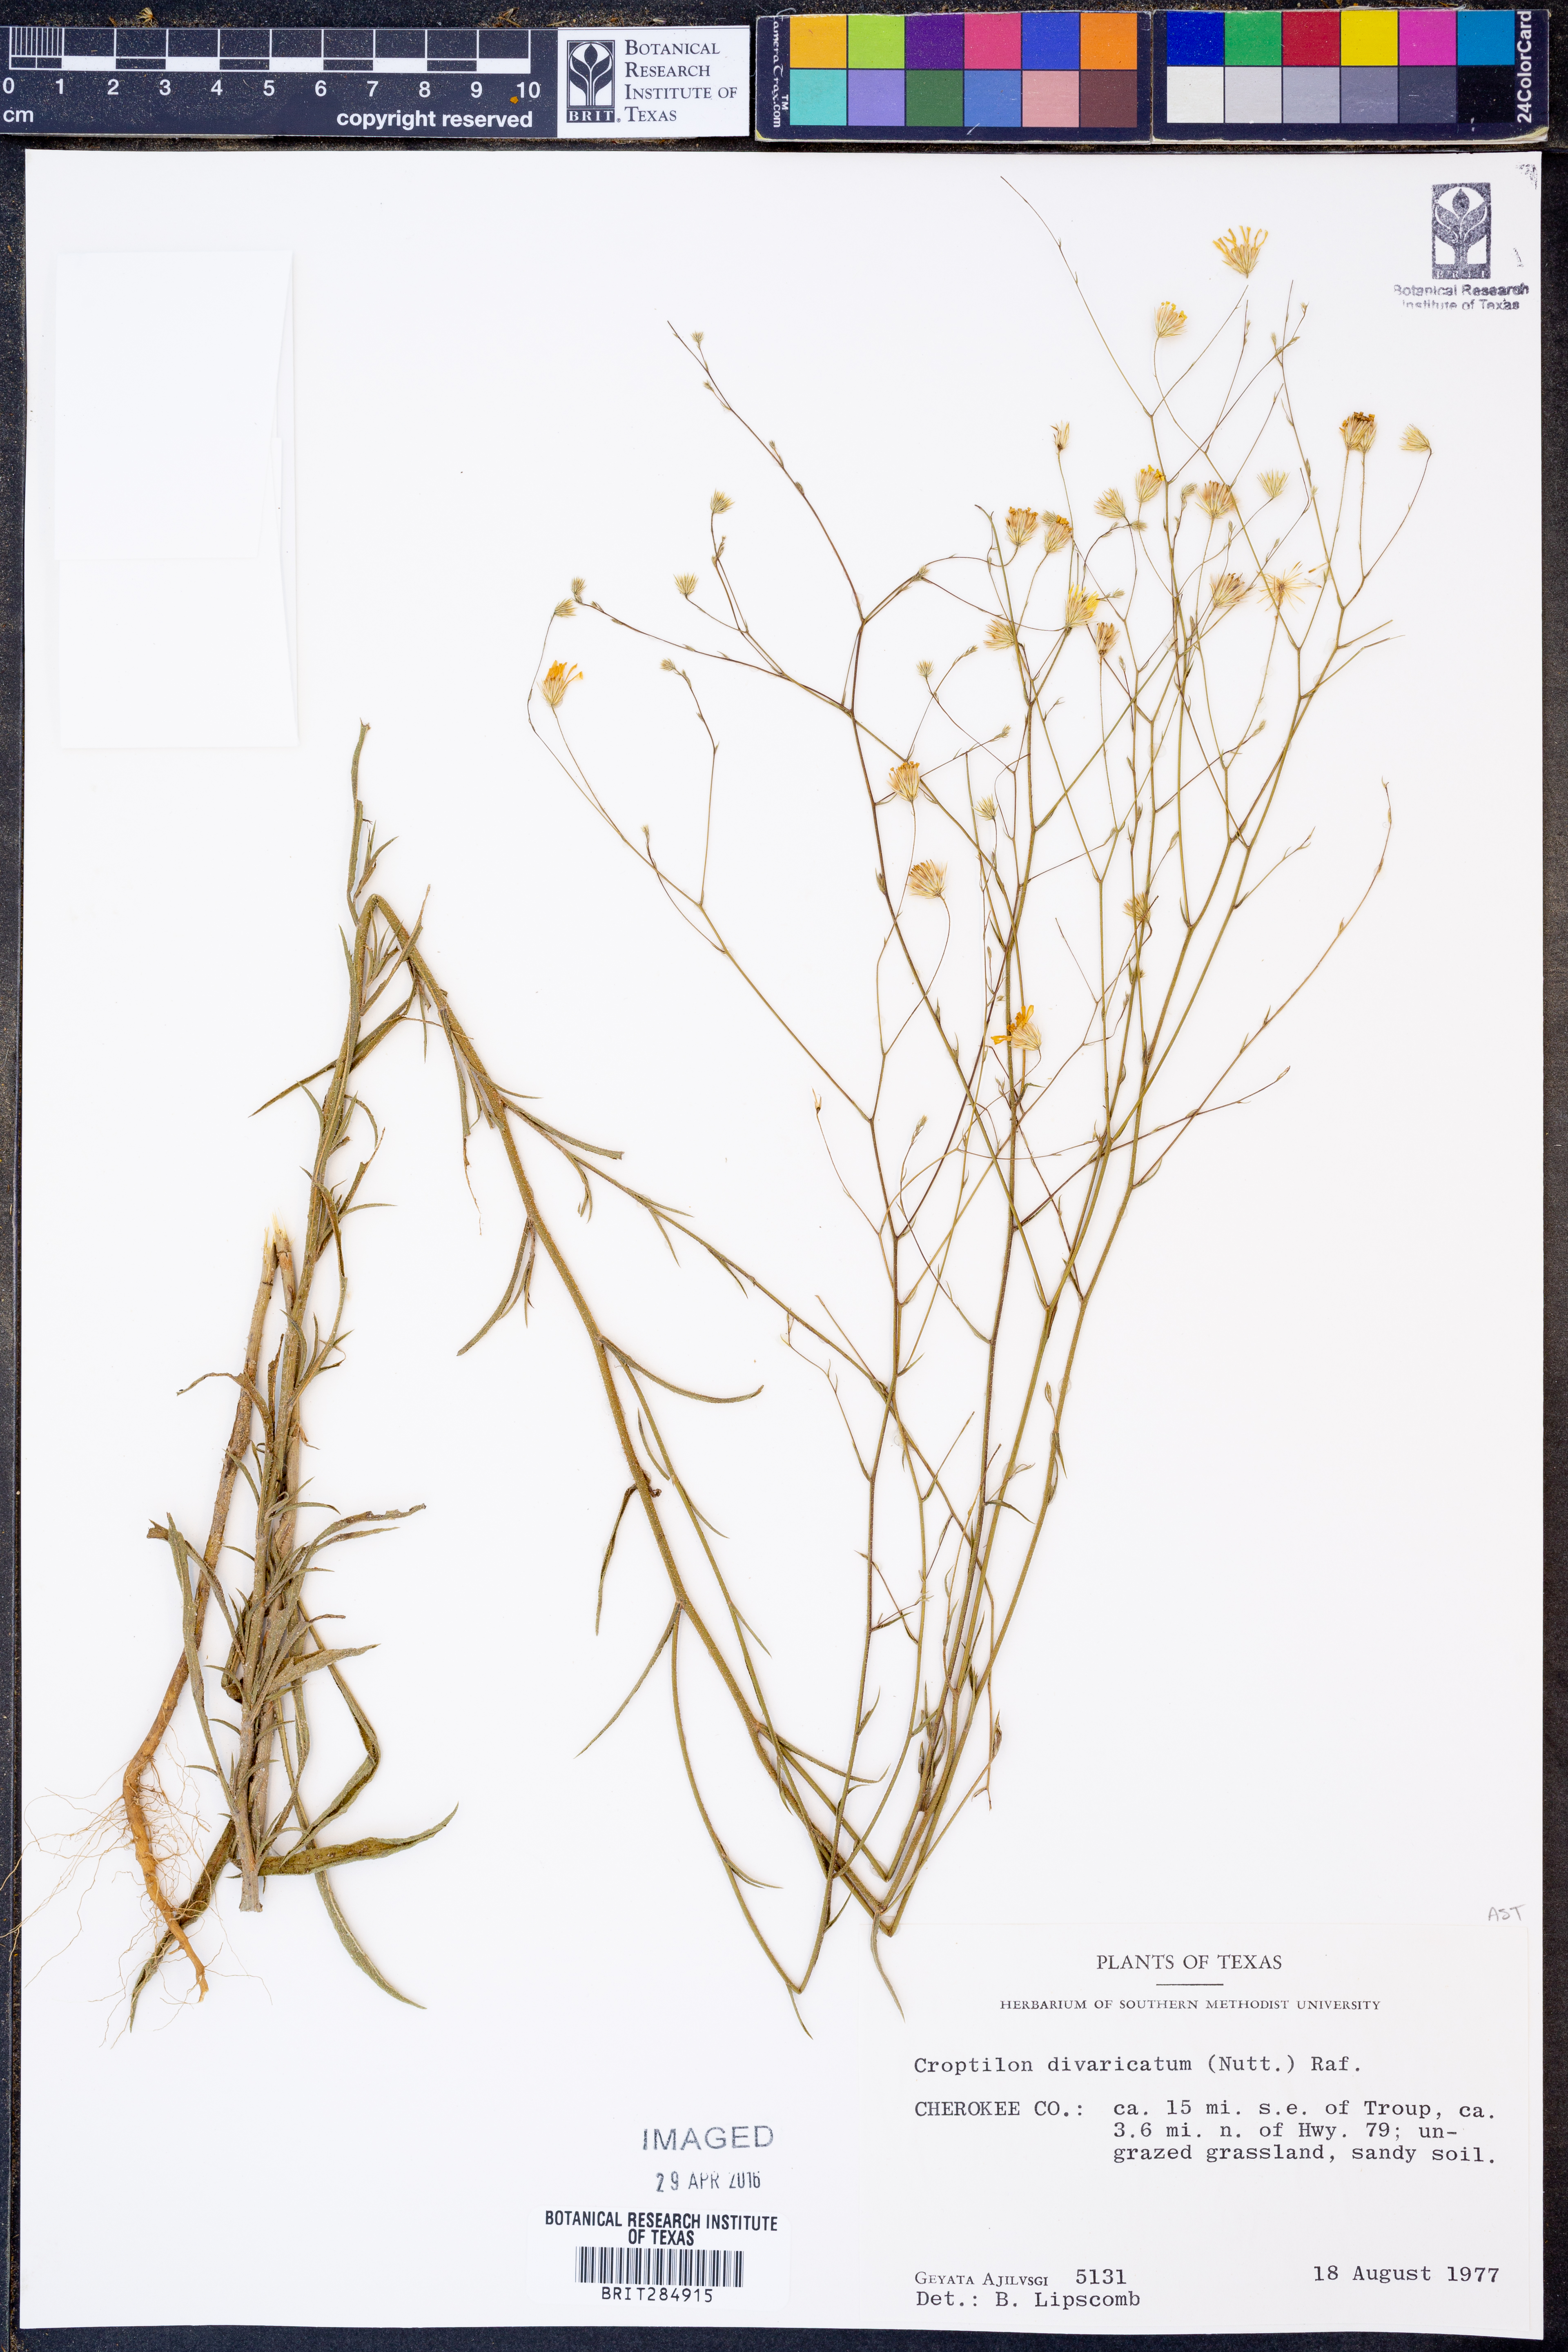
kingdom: Plantae
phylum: Tracheophyta
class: Magnoliopsida
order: Asterales
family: Asteraceae
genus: Croptilon
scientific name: Croptilon divaricatum
